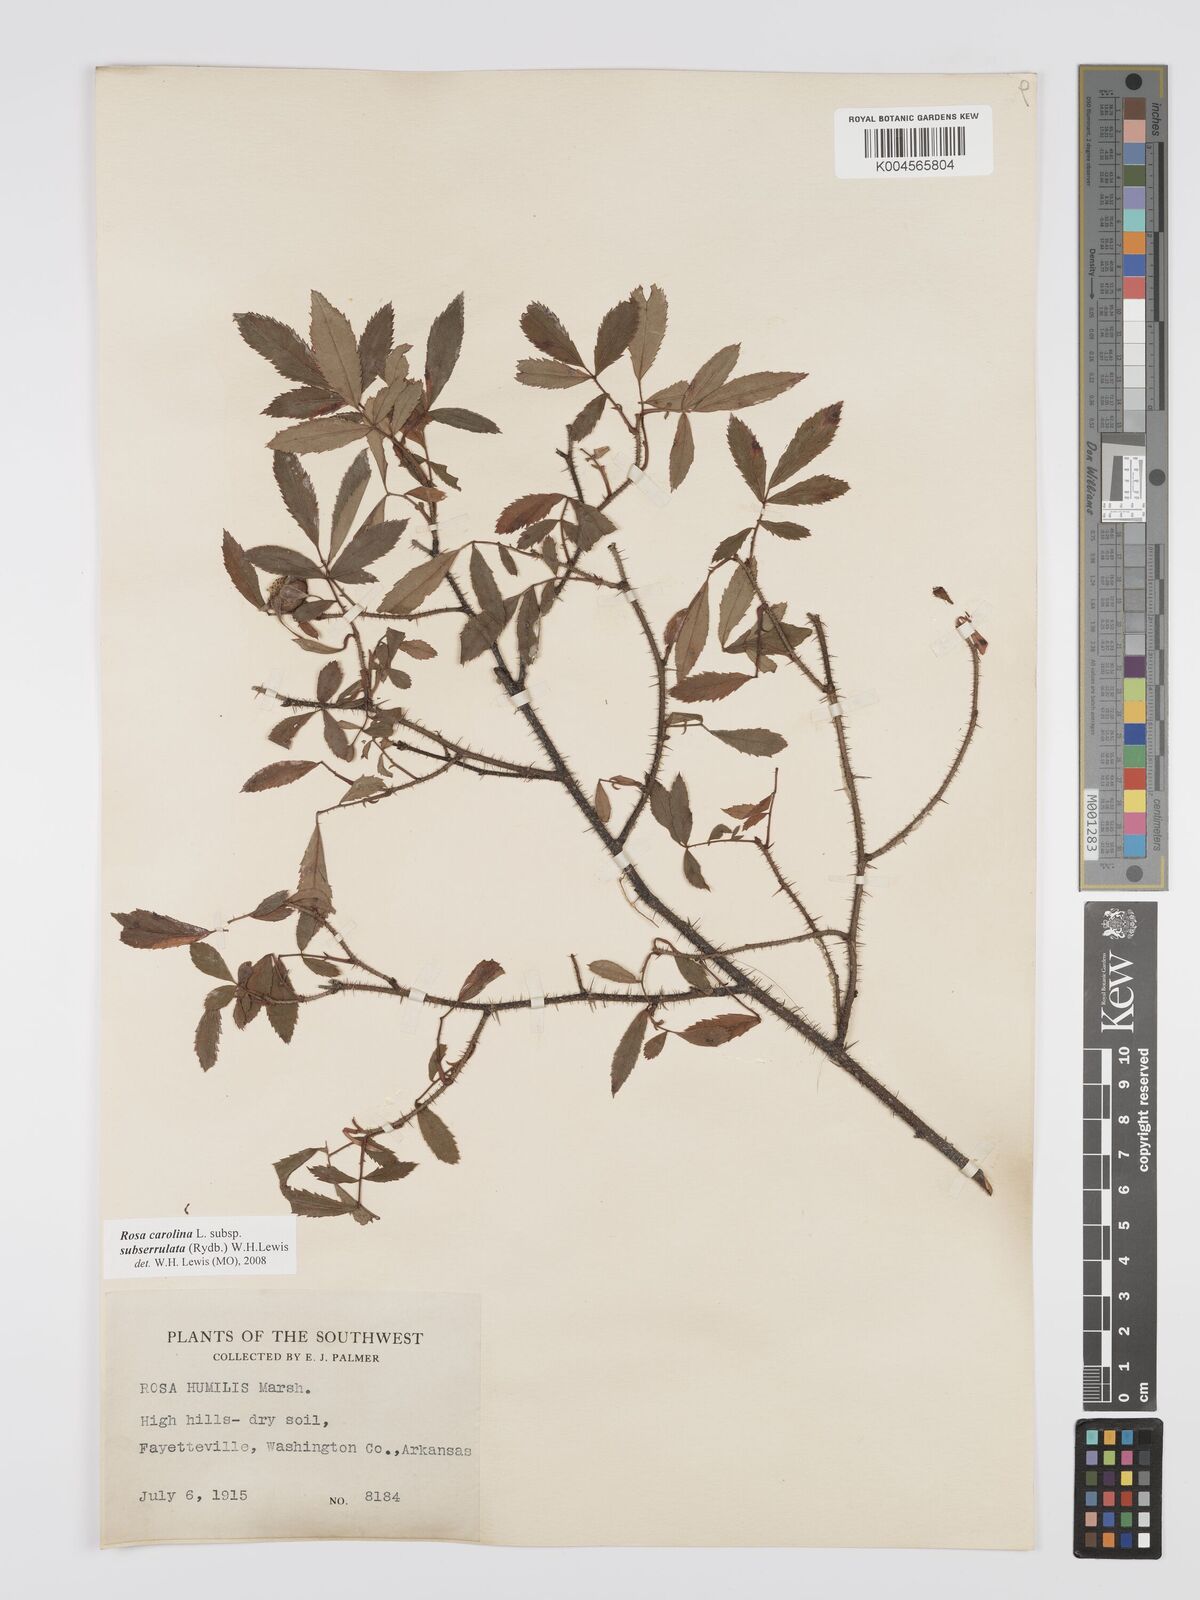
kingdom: Plantae
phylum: Tracheophyta
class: Magnoliopsida
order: Rosales
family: Rosaceae
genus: Rosa
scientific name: Rosa carolina
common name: Pasture rose
